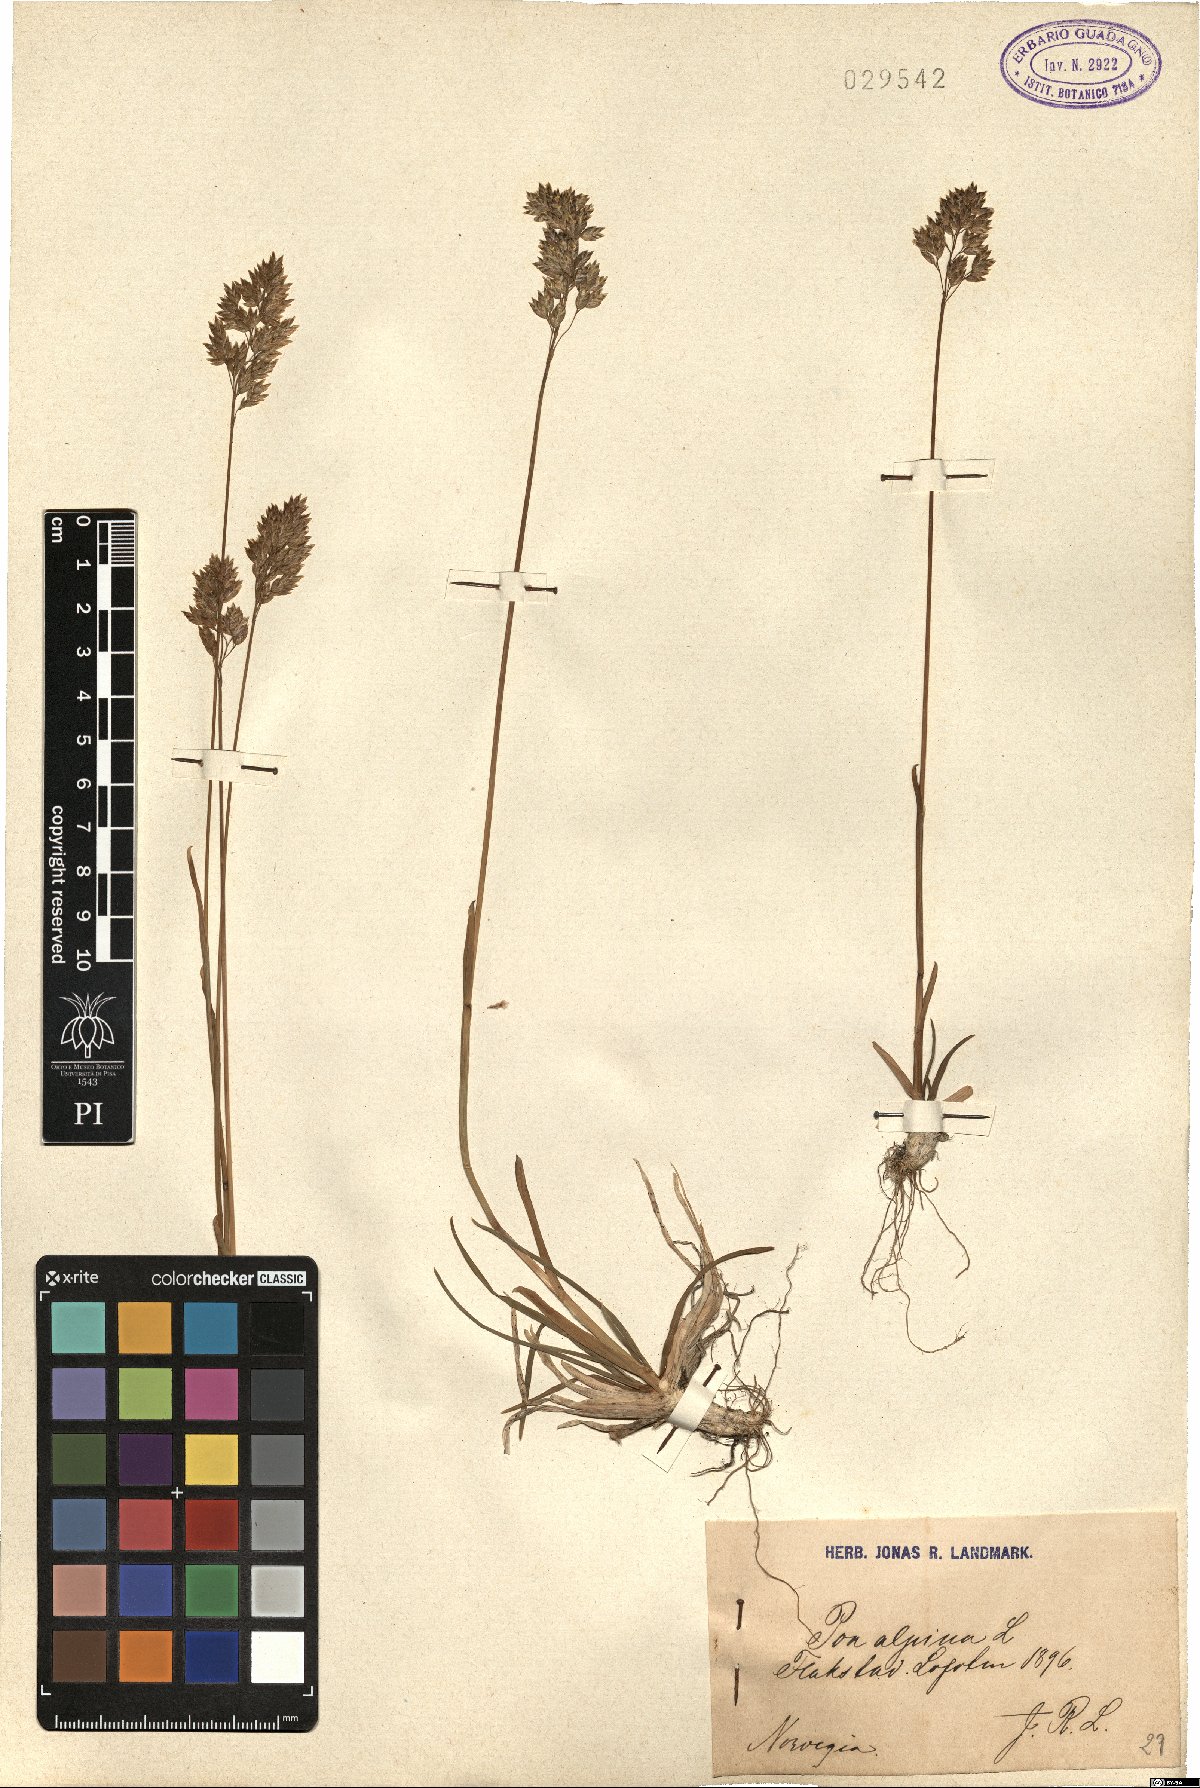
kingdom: Plantae
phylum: Tracheophyta
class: Liliopsida
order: Poales
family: Poaceae
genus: Poa
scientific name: Poa alpina
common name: Alpine bluegrass
